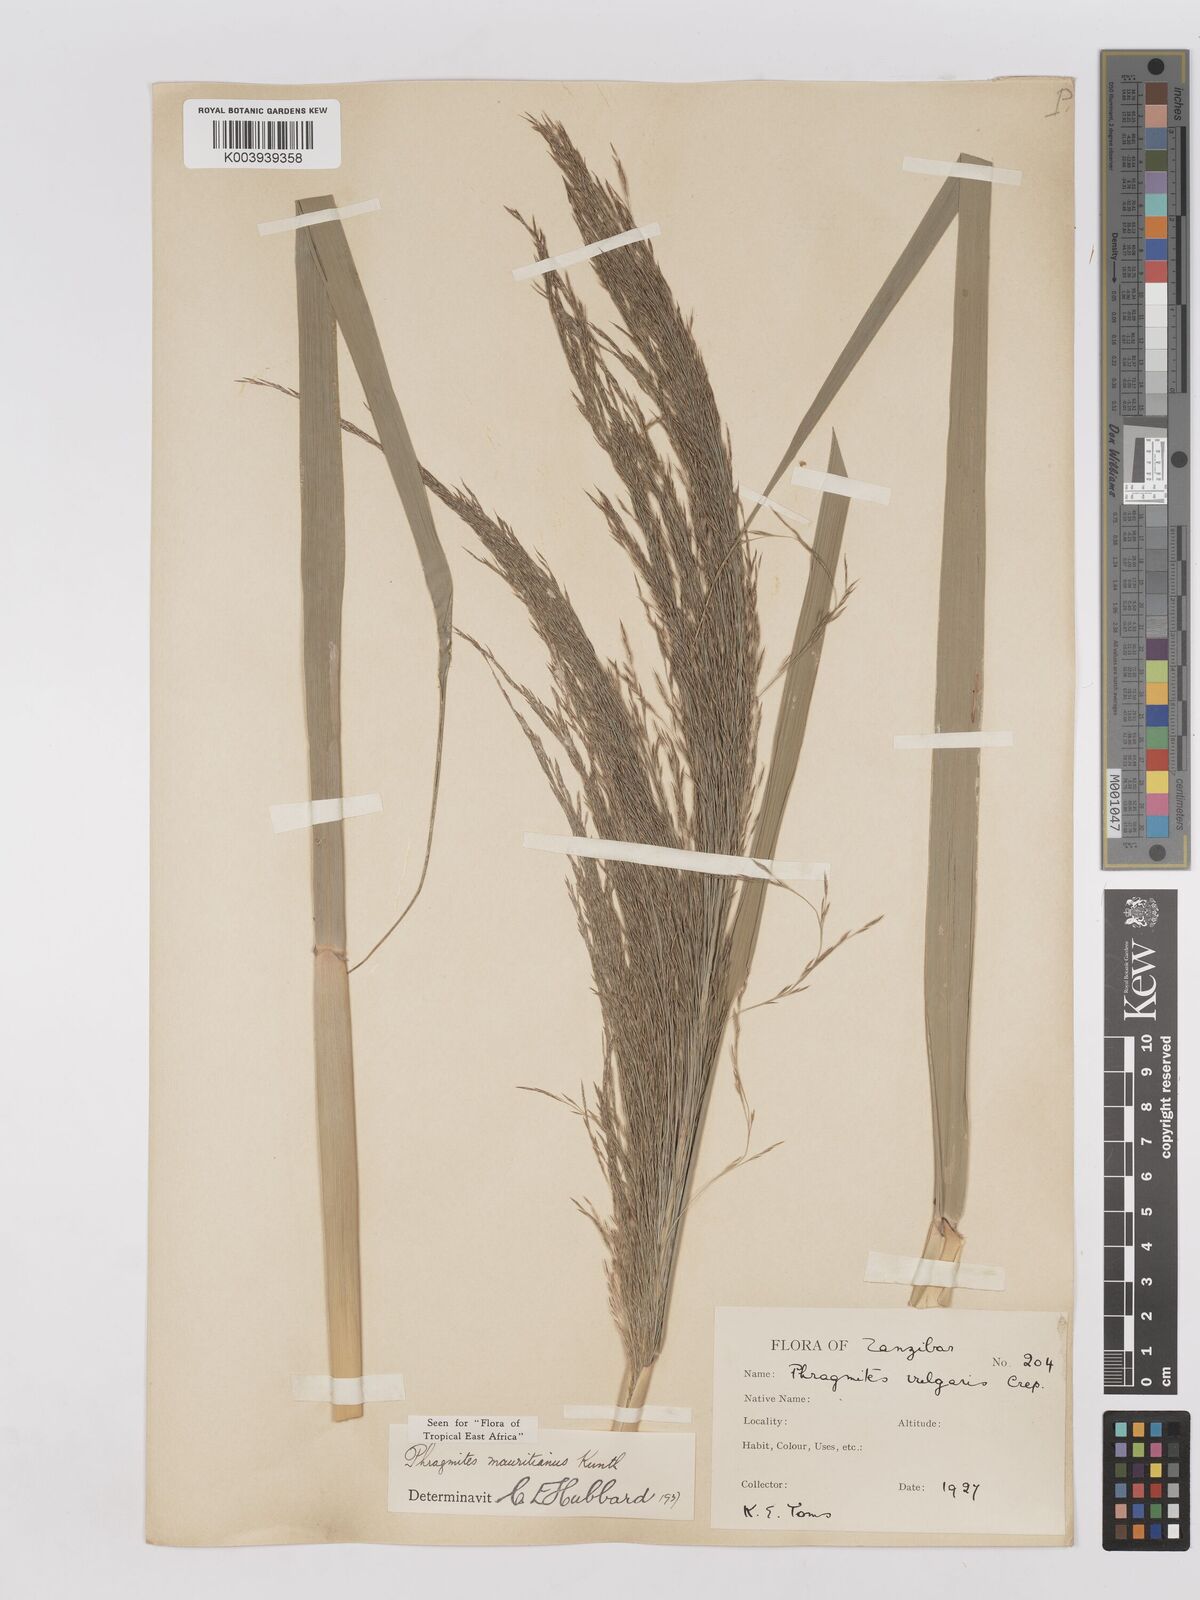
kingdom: Plantae
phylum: Tracheophyta
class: Liliopsida
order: Poales
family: Poaceae
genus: Phragmites
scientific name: Phragmites mauritianus
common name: Reed grass
